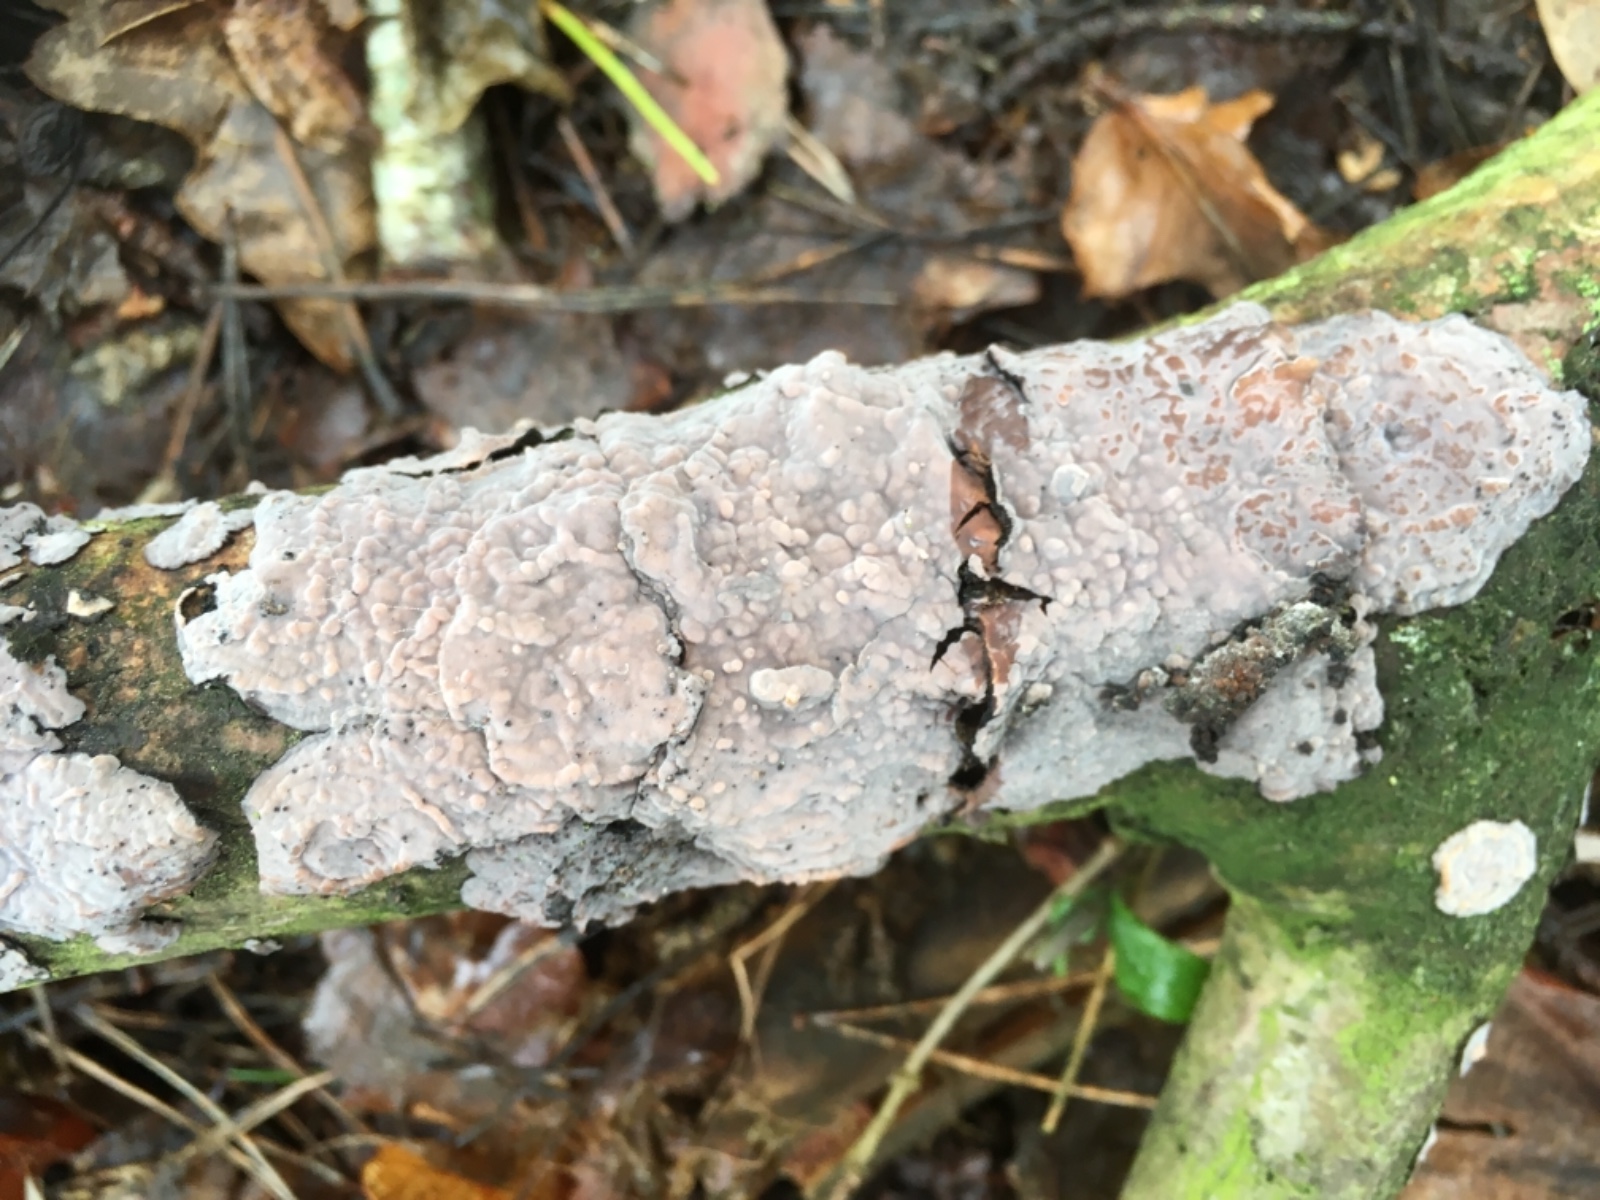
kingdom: Fungi
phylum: Basidiomycota
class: Agaricomycetes
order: Russulales
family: Stereaceae
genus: Stereum
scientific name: Stereum rugosum
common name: rynket lædersvamp
